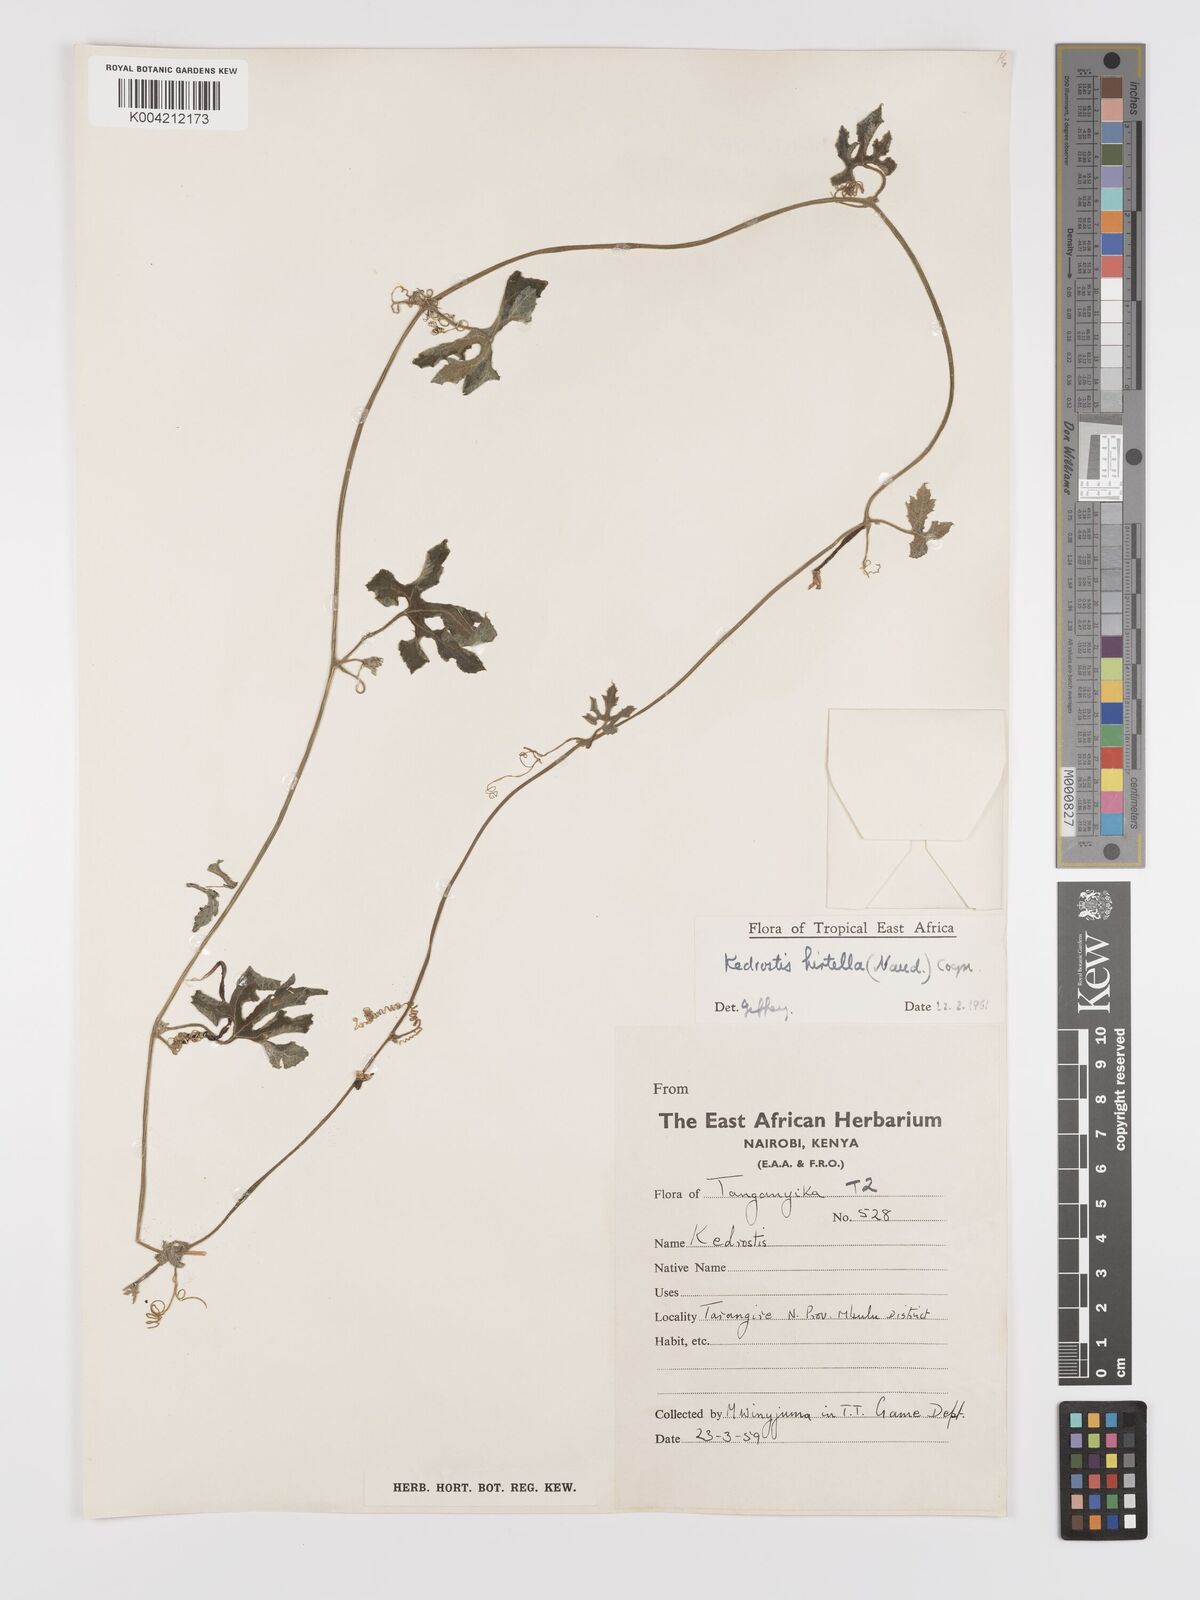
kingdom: Plantae
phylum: Tracheophyta
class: Magnoliopsida
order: Cucurbitales
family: Cucurbitaceae
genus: Kedrostis
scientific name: Kedrostis leloja
